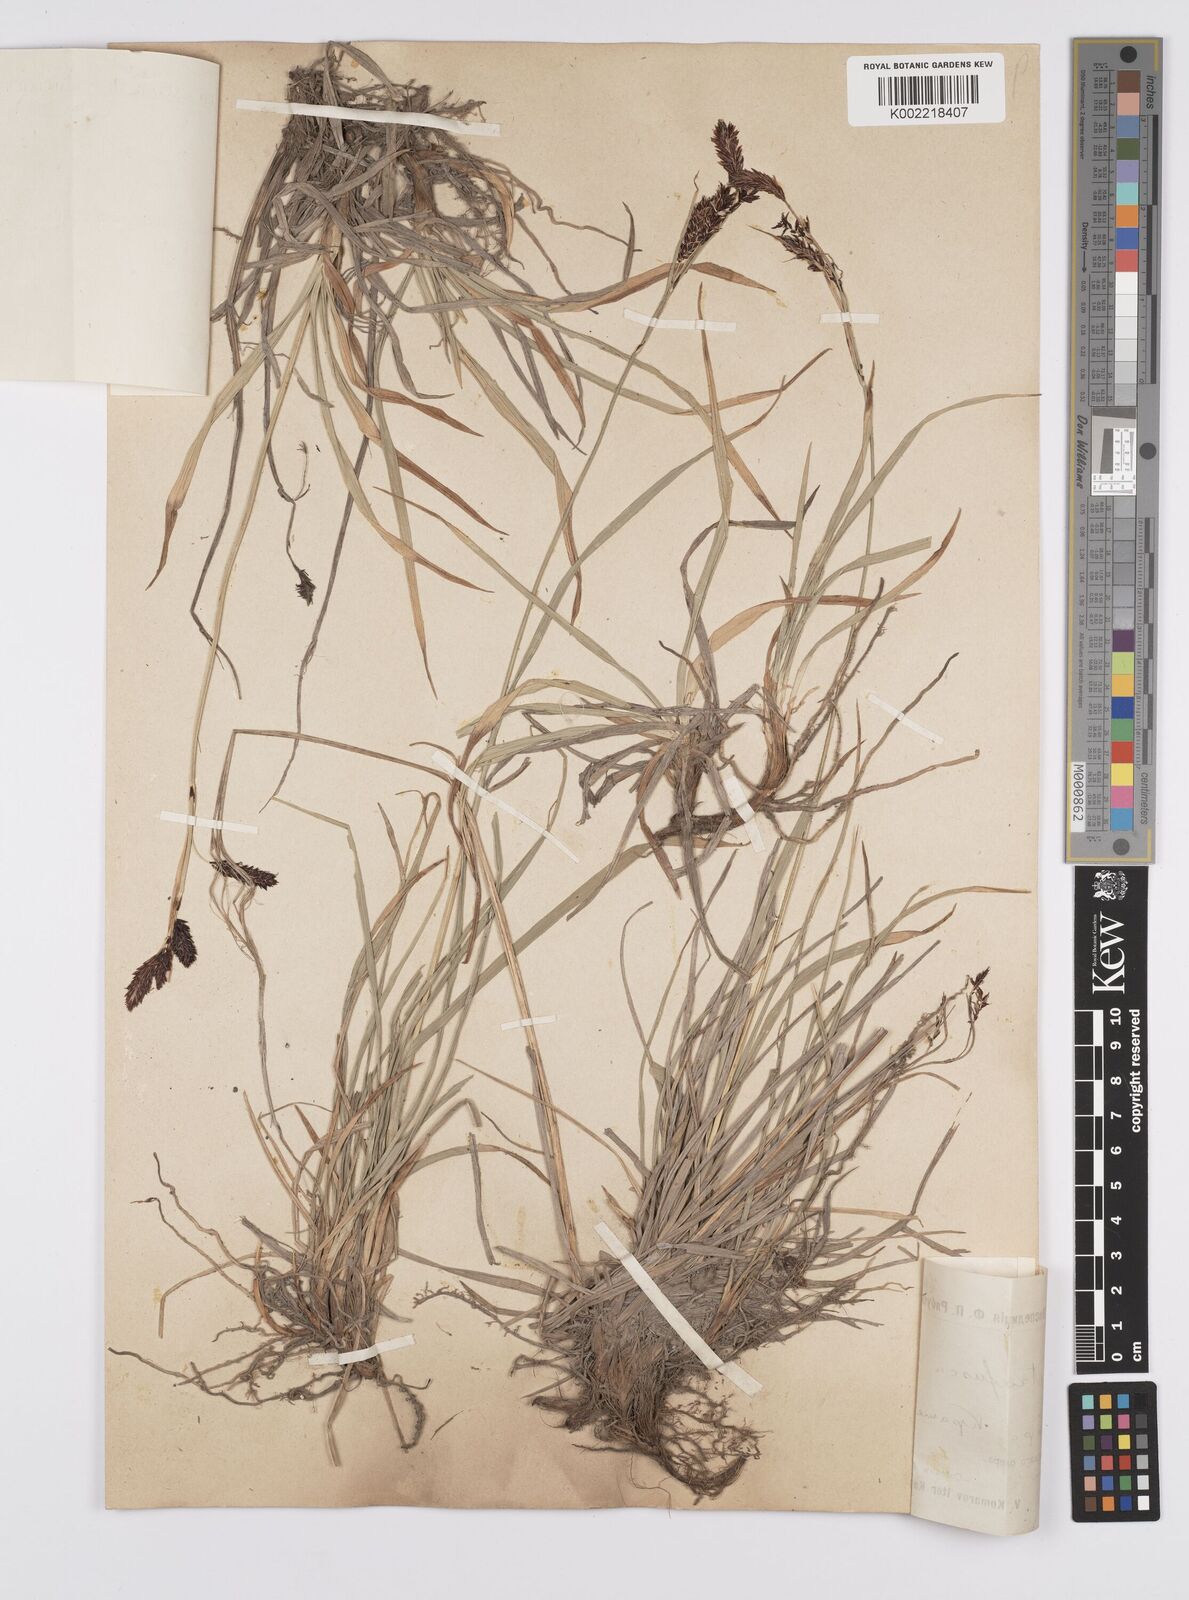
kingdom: Plantae
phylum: Tracheophyta
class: Liliopsida
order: Poales
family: Cyperaceae
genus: Carex
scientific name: Carex scita
